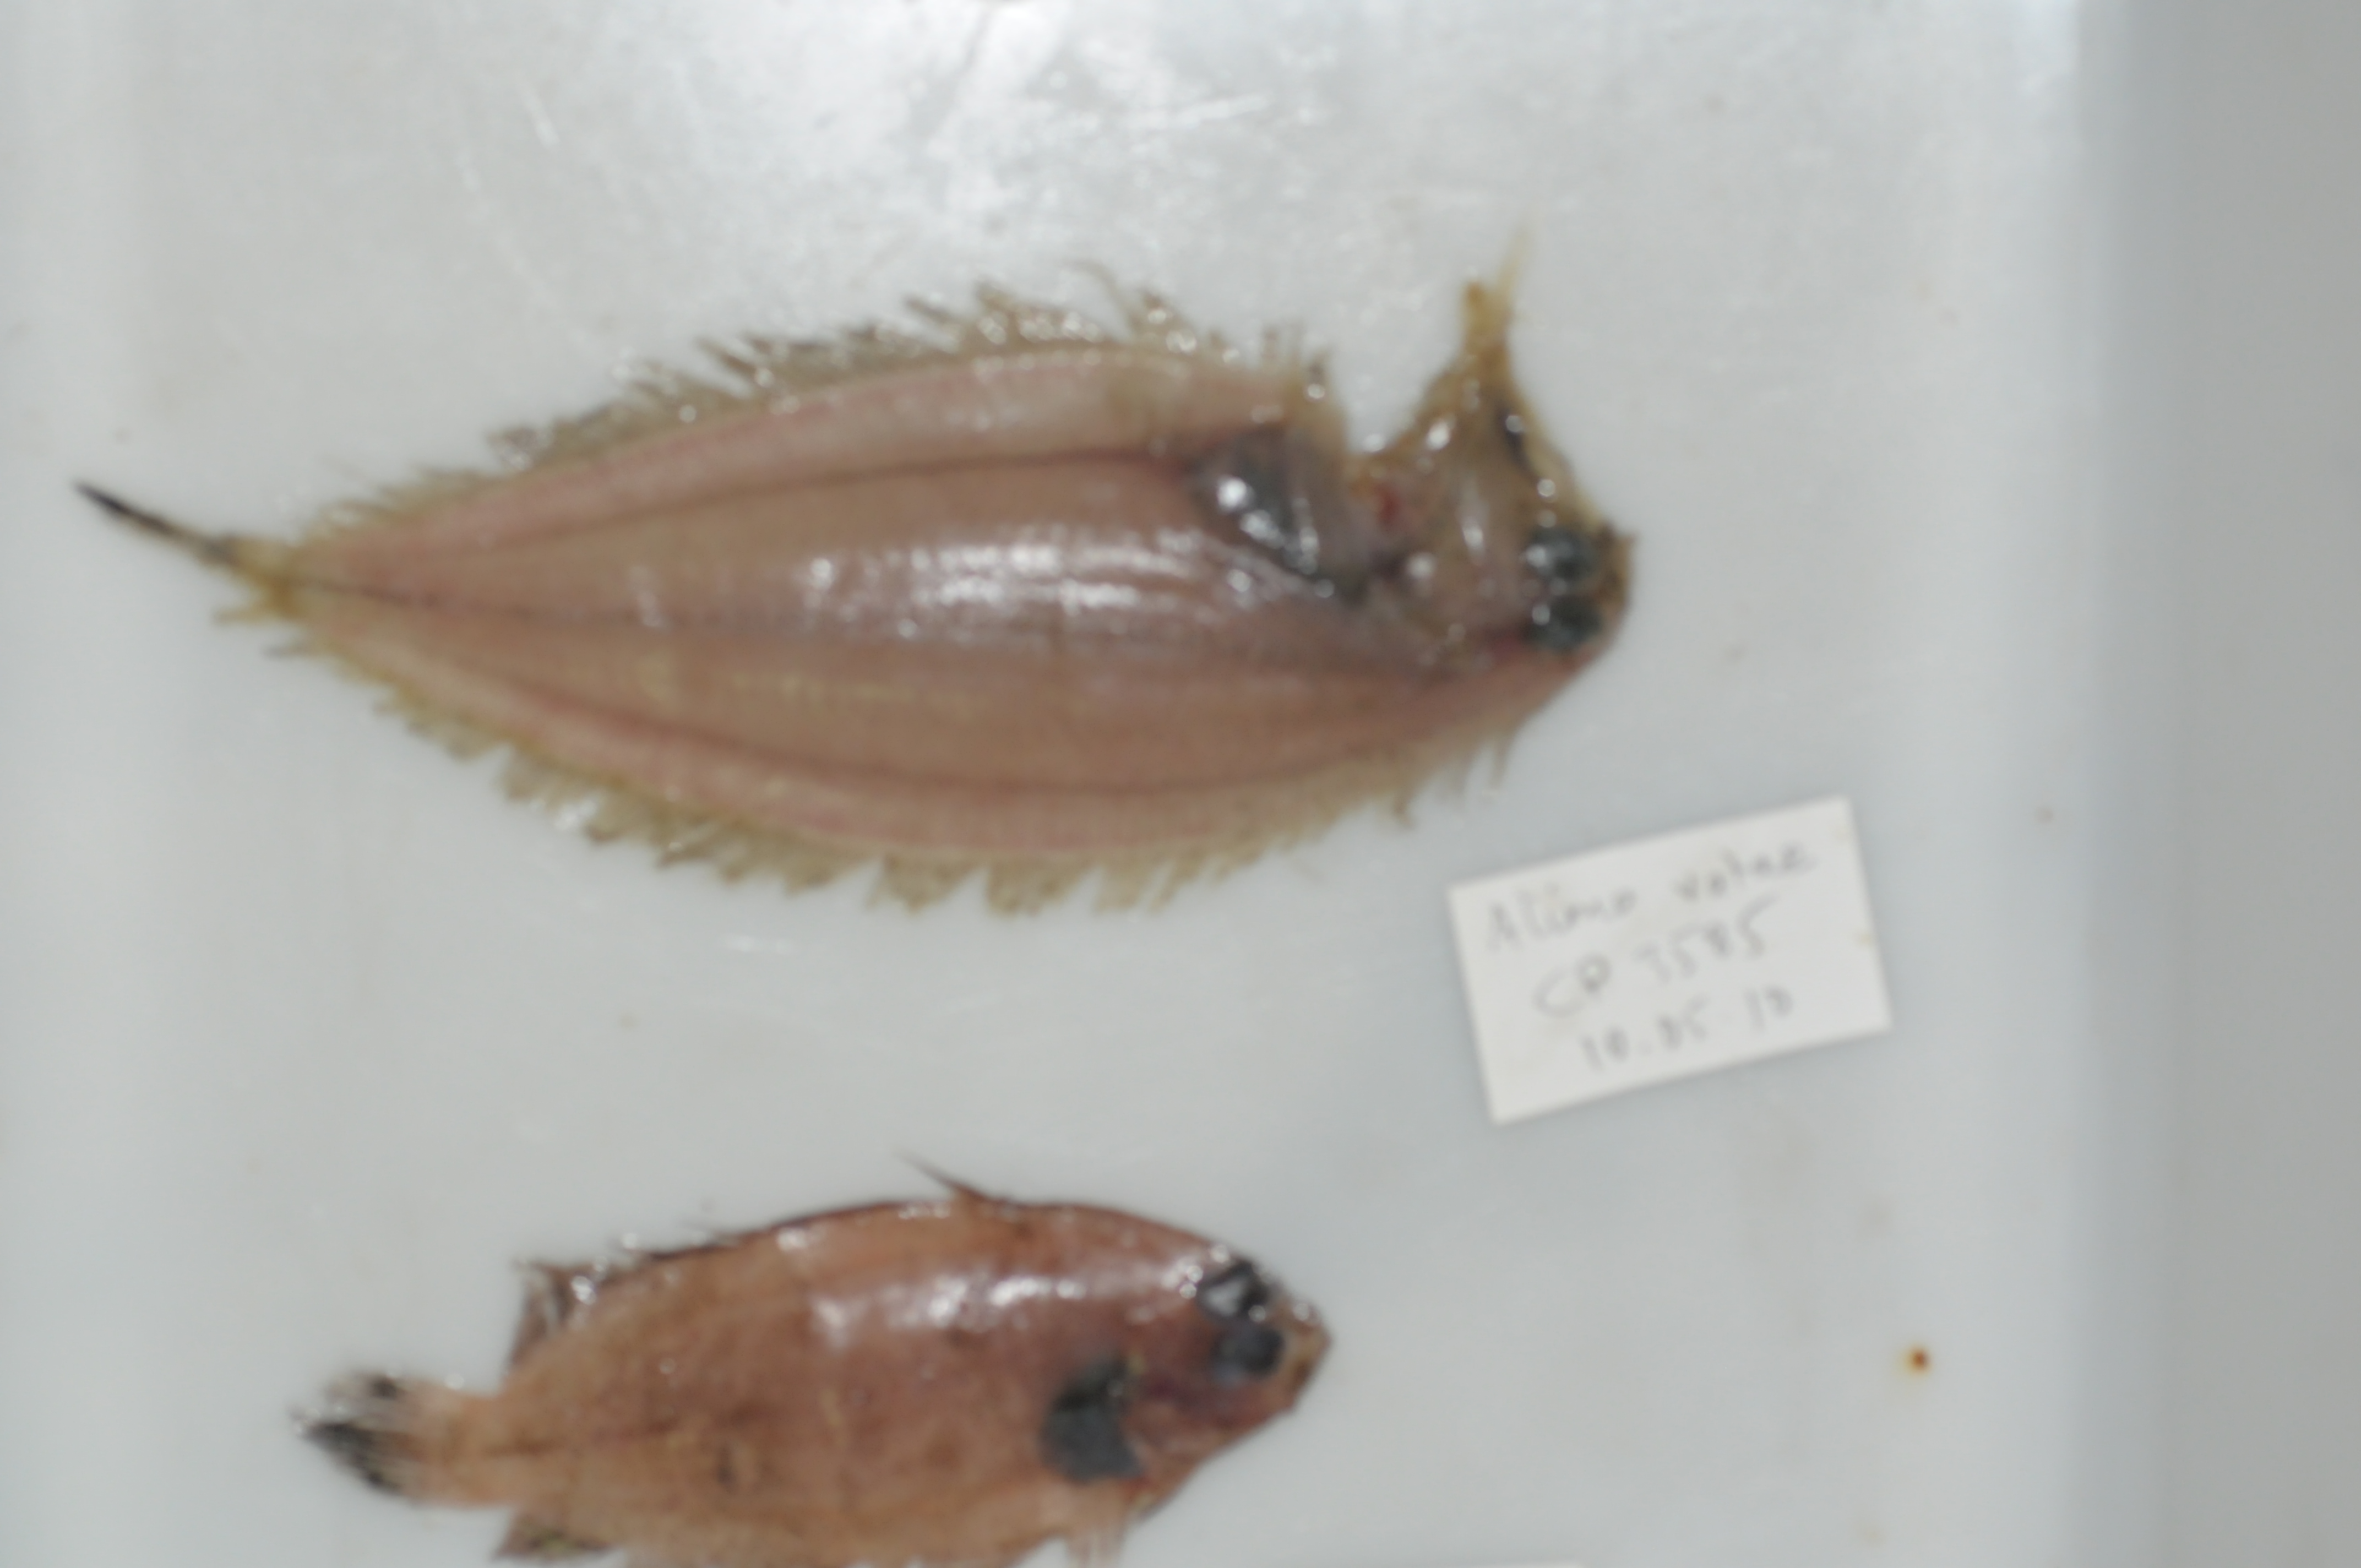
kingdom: Animalia
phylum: Chordata
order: Pleuronectiformes
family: Bothidae
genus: Kamoharaia
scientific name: Kamoharaia megastoma
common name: Wide-mouthed flounder
